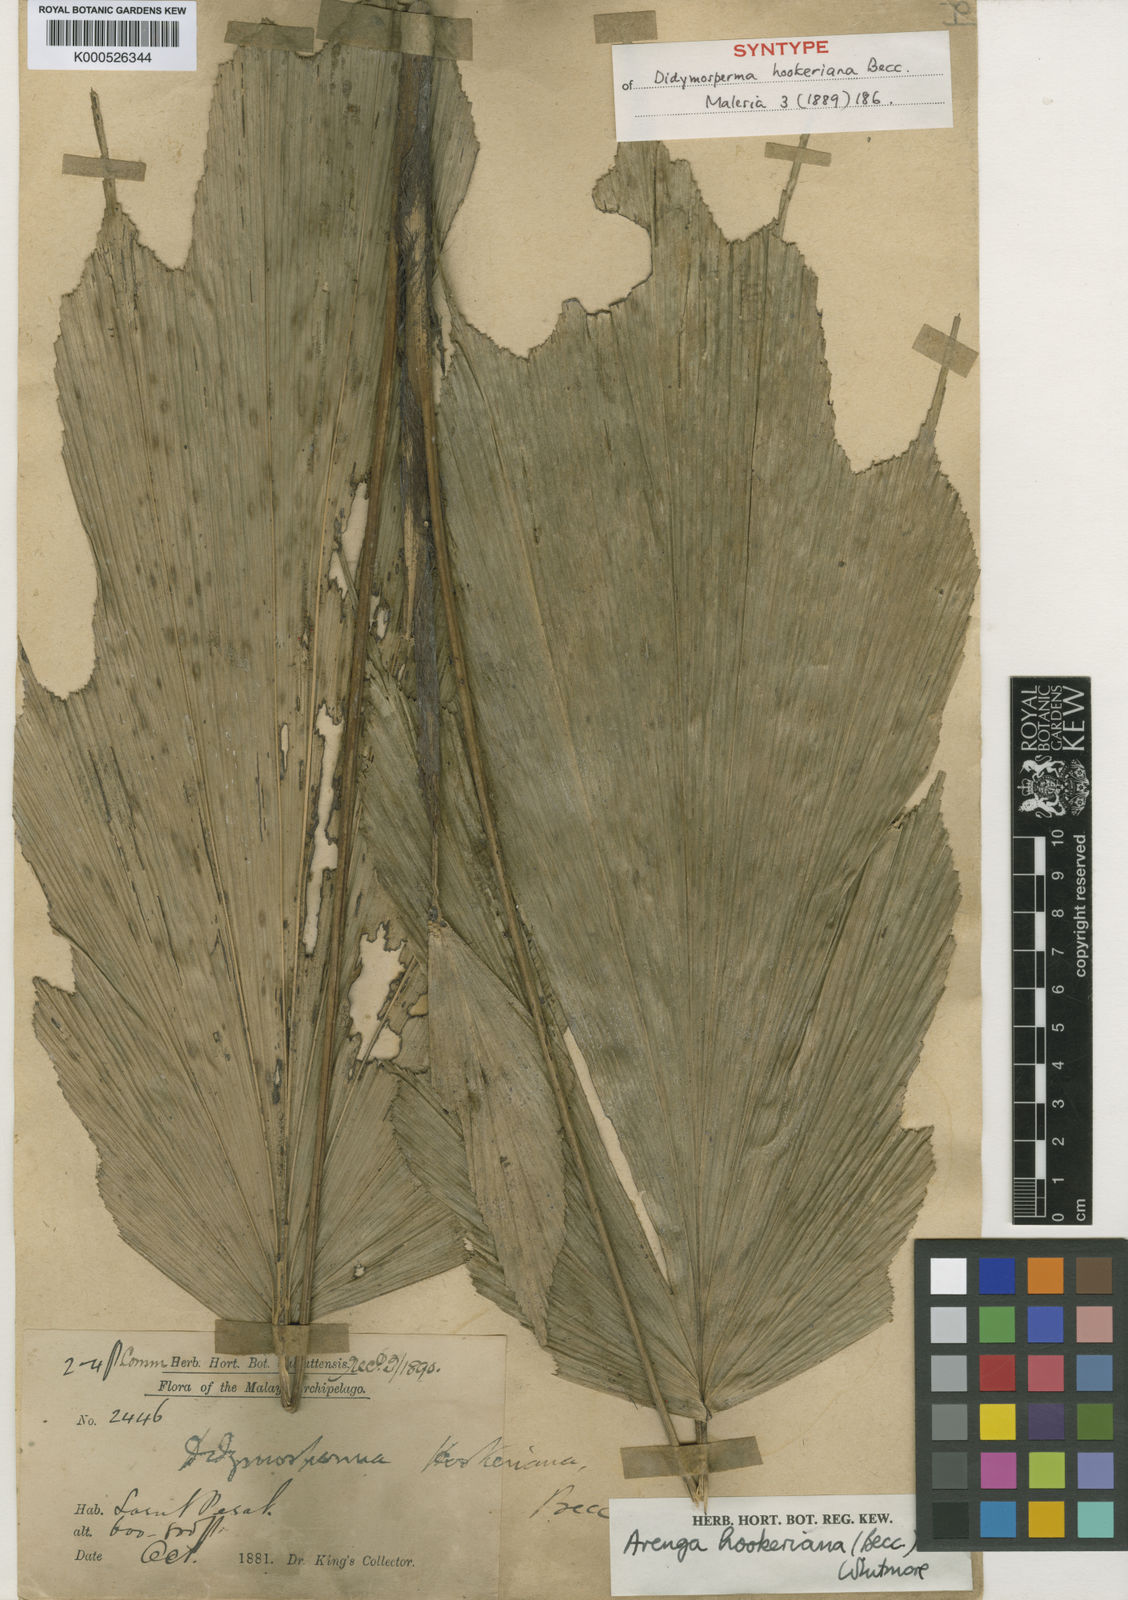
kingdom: Plantae
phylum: Tracheophyta
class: Liliopsida
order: Arecales
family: Arecaceae
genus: Arenga
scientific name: Arenga hookeriana
